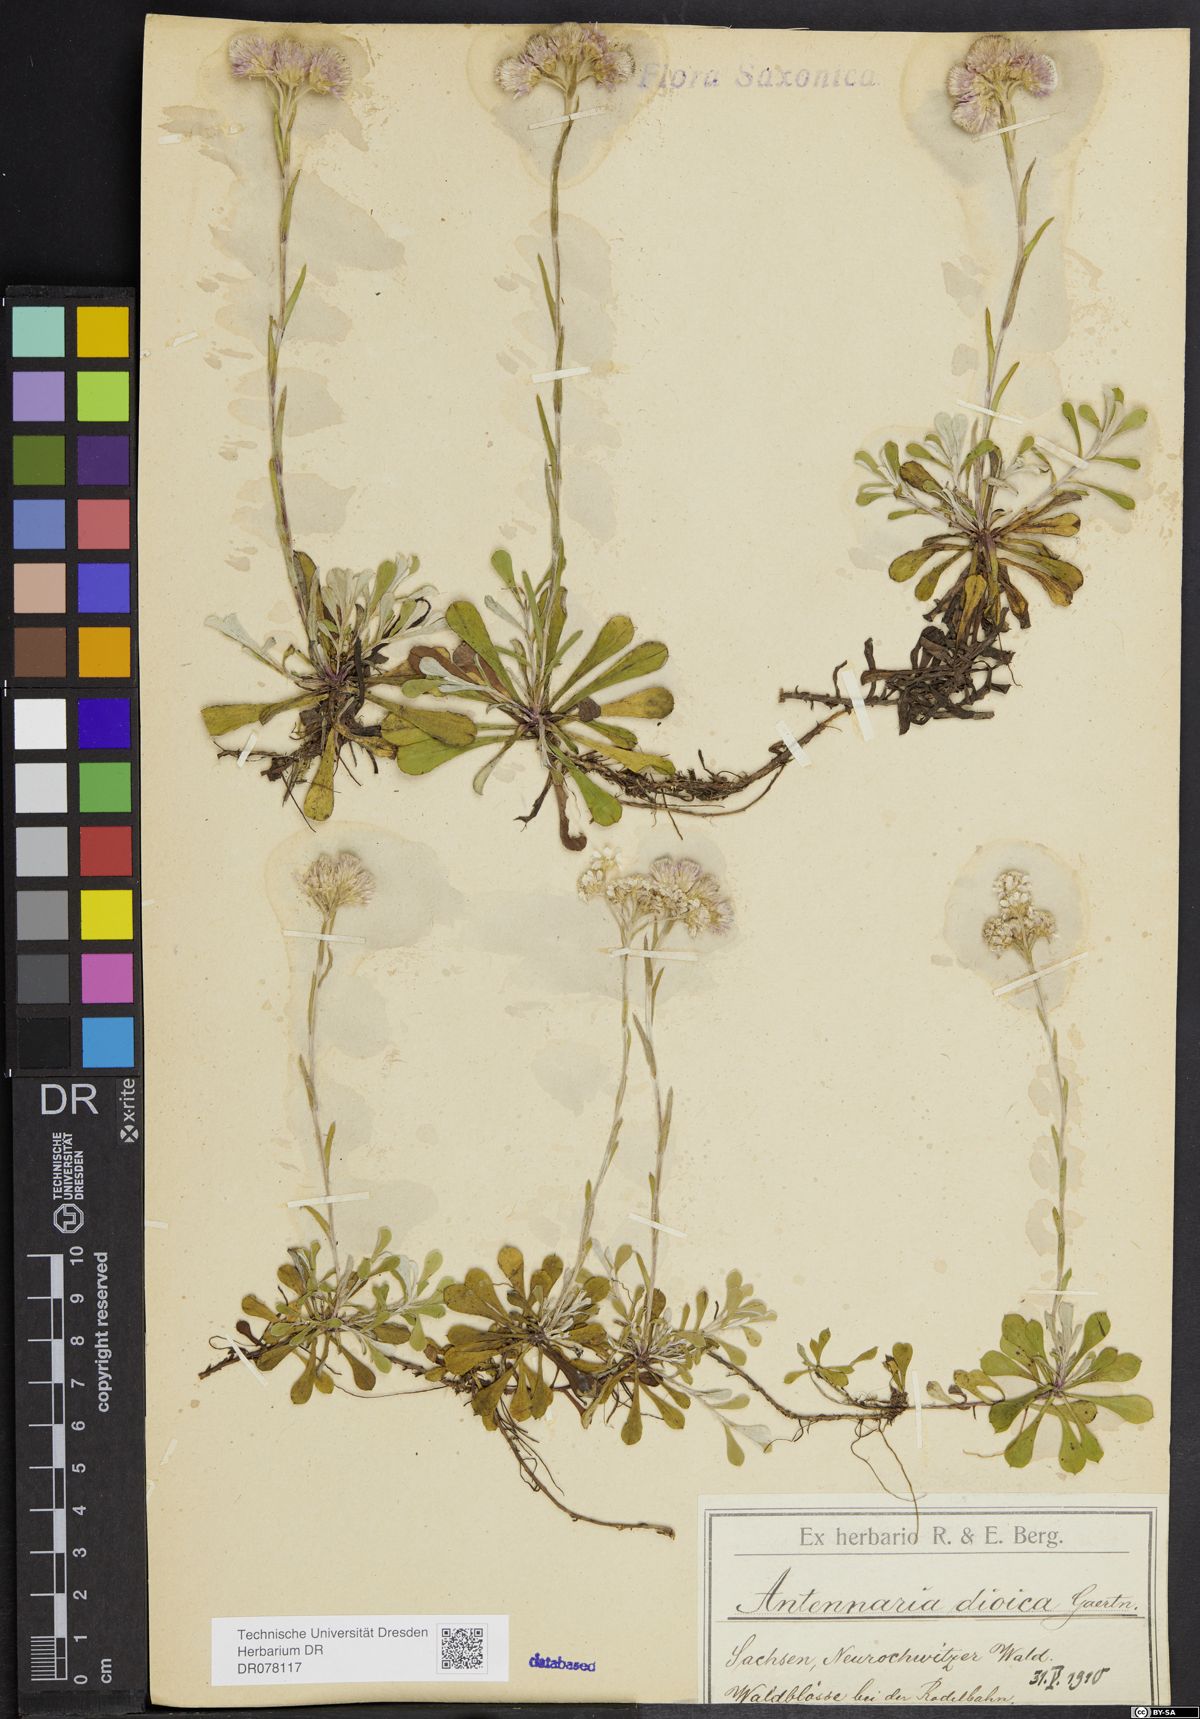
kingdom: Plantae
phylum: Tracheophyta
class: Magnoliopsida
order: Asterales
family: Asteraceae
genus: Antennaria
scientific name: Antennaria dioica
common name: Mountain everlasting
